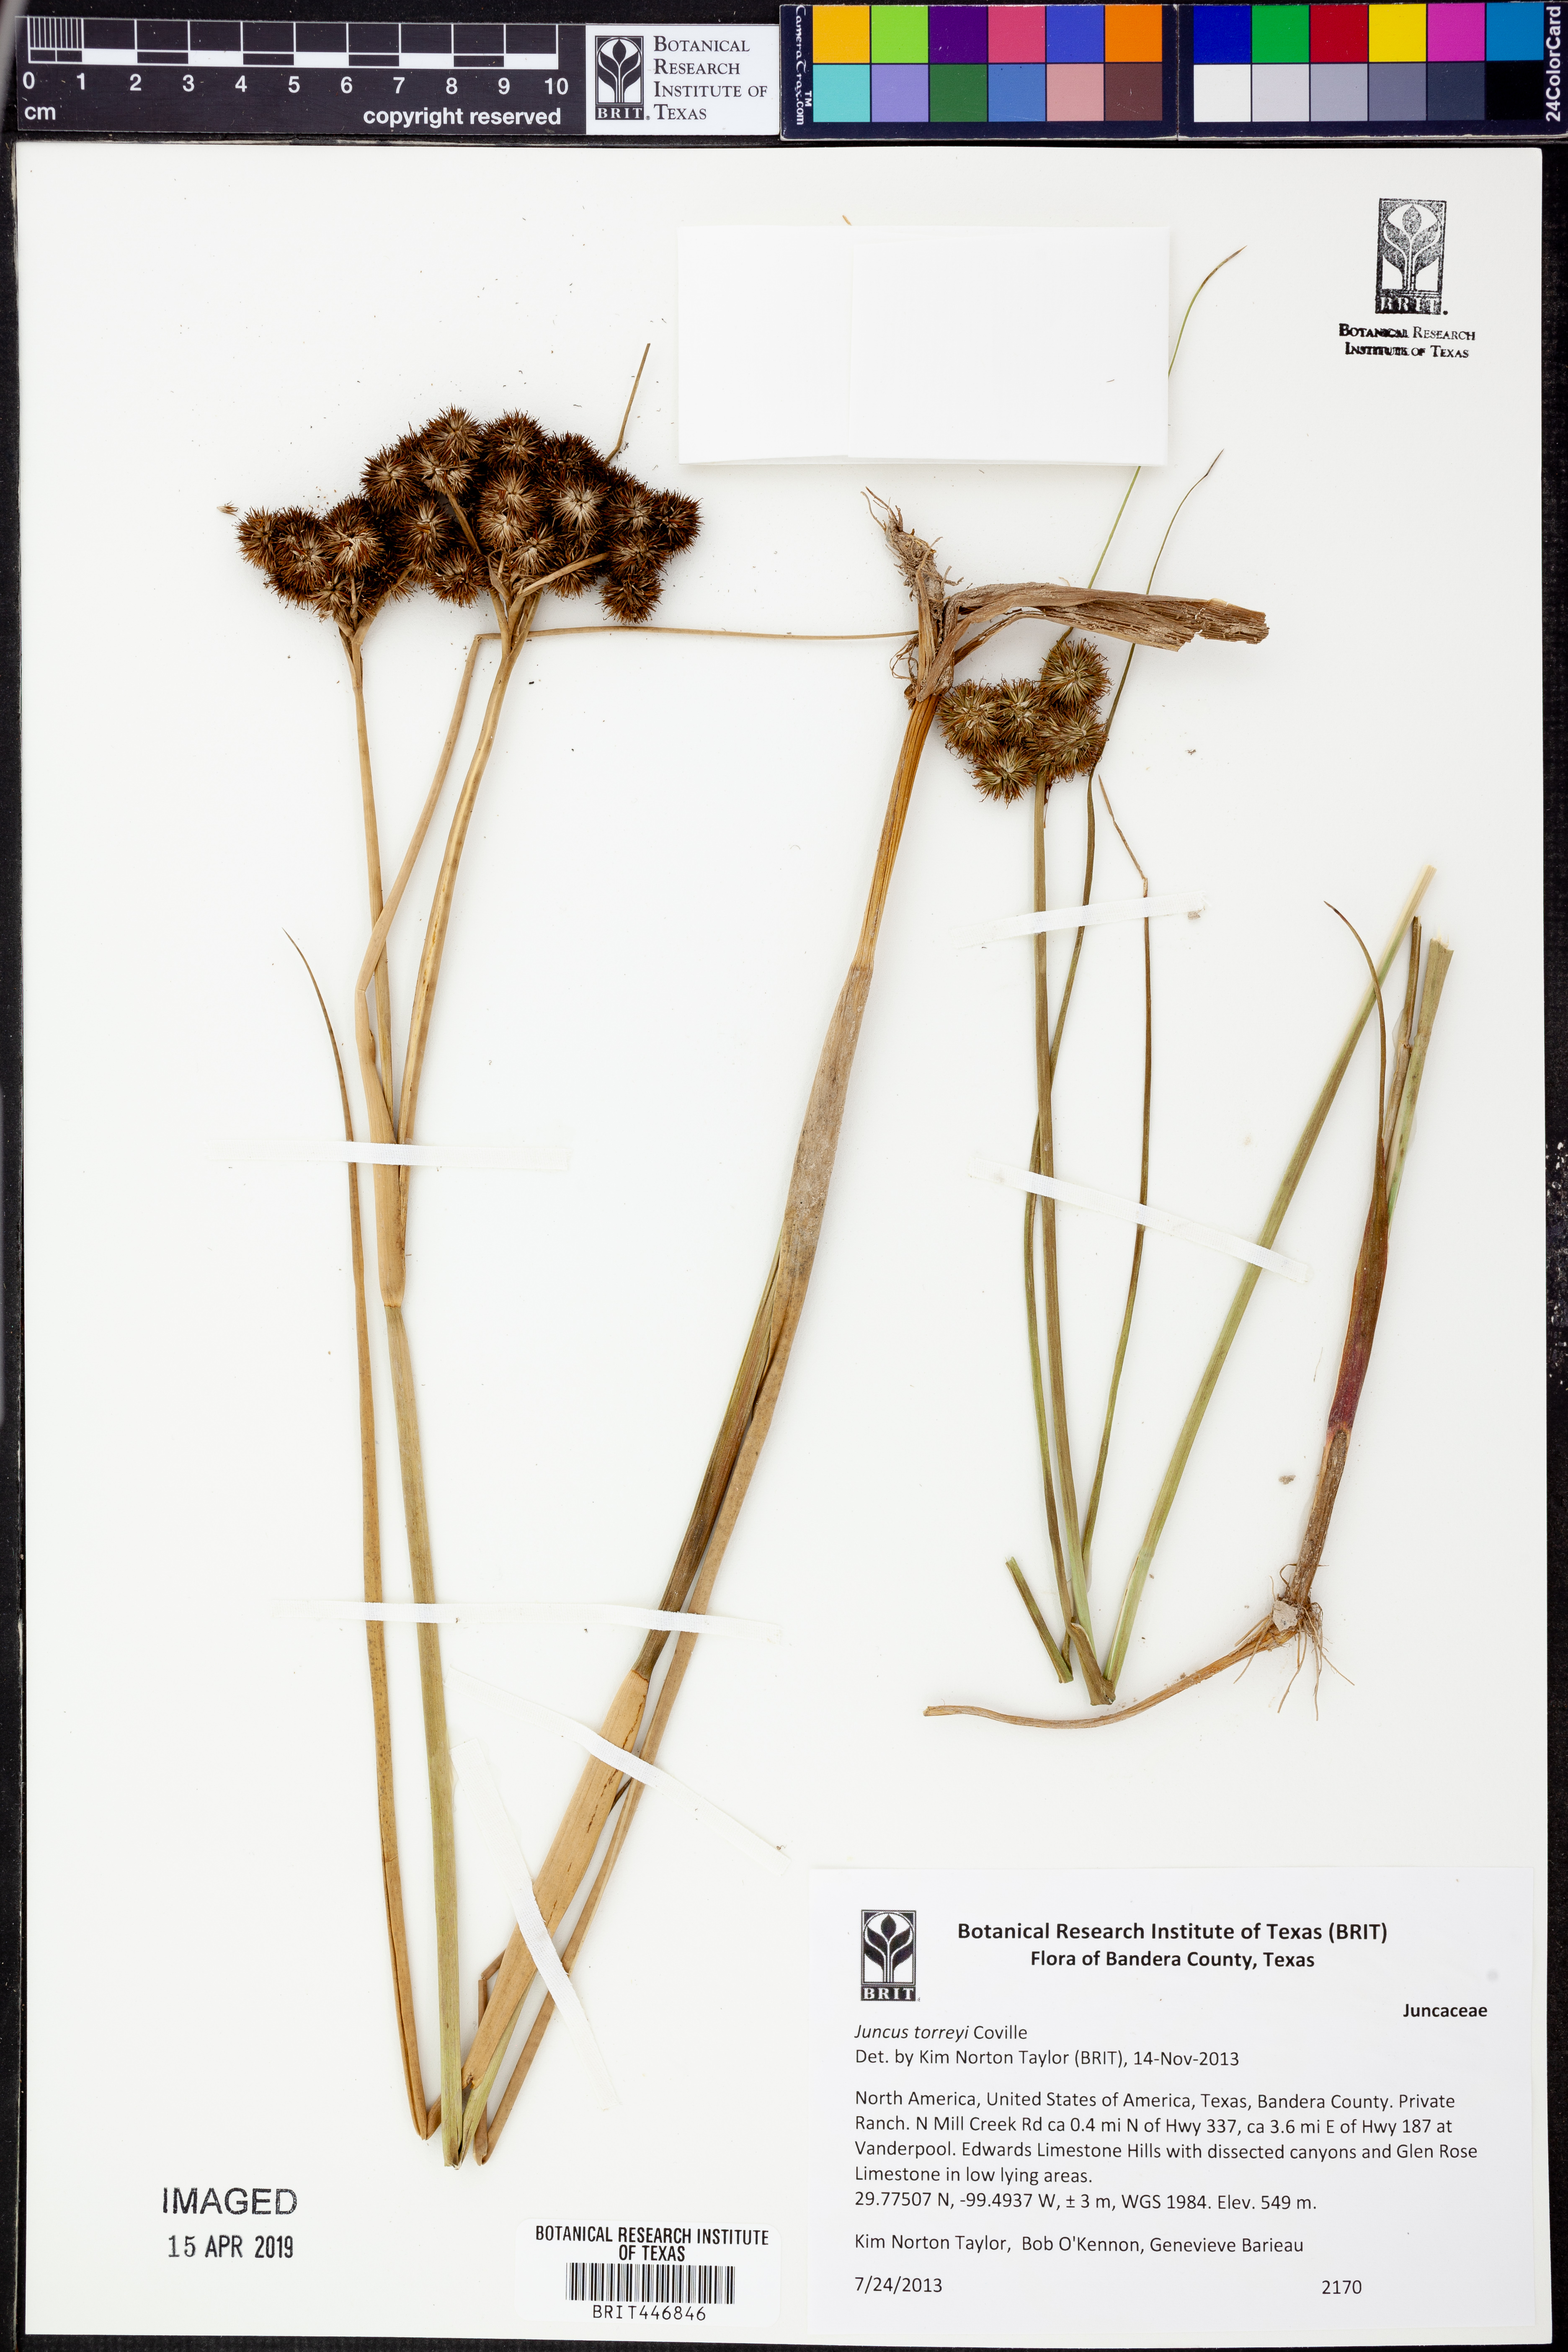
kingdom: Plantae
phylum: Tracheophyta
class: Liliopsida
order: Poales
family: Juncaceae
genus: Juncus
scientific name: Juncus torreyi
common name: Torrey's rush
